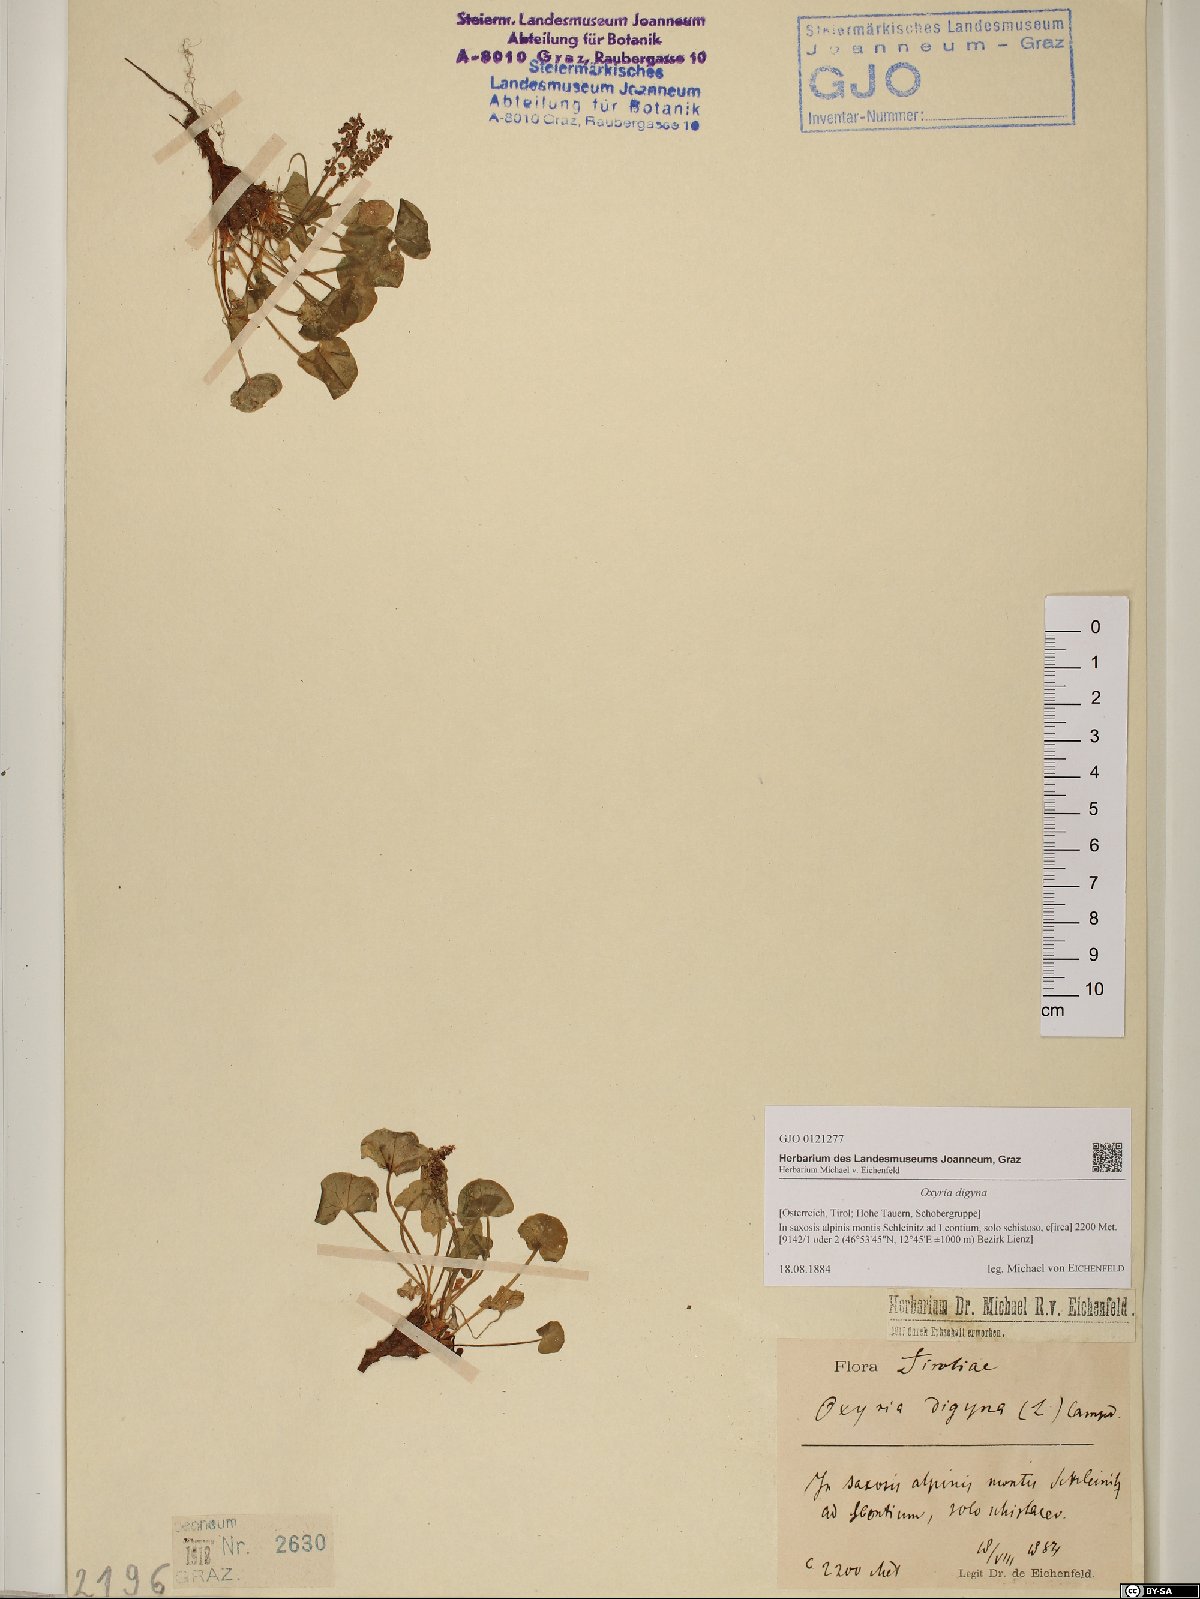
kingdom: Plantae
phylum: Tracheophyta
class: Magnoliopsida
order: Caryophyllales
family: Polygonaceae
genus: Oxyria
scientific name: Oxyria digyna
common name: Alpine mountain-sorrel
